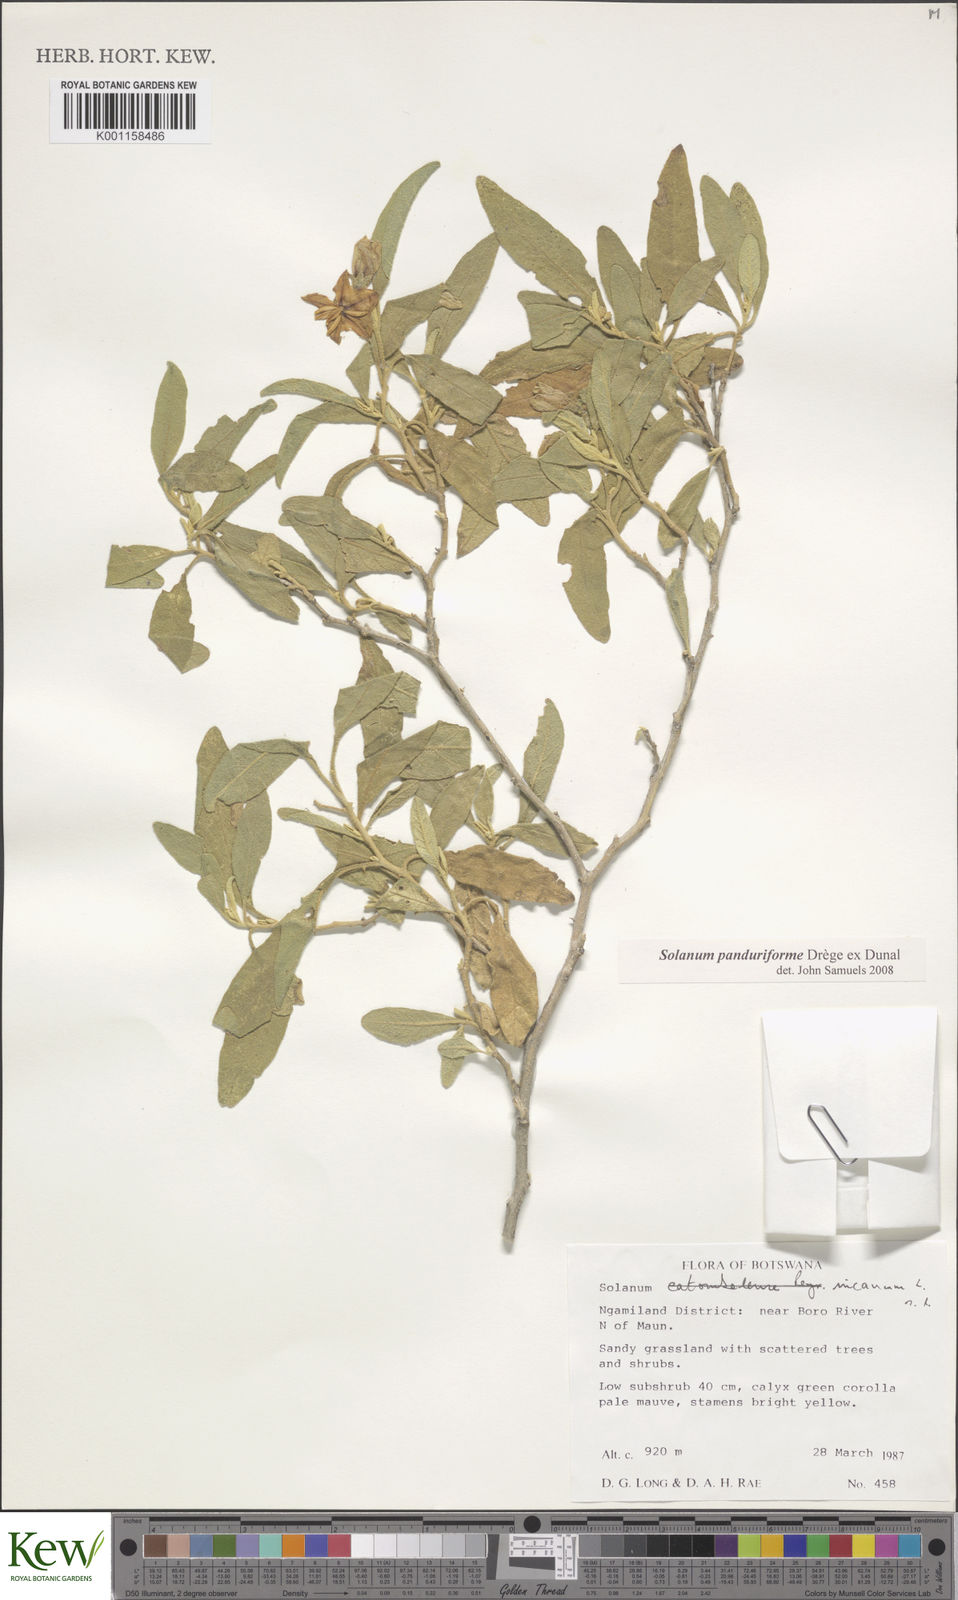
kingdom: Plantae
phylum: Tracheophyta
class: Magnoliopsida
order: Solanales
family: Solanaceae
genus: Solanum
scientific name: Solanum campylacanthum
